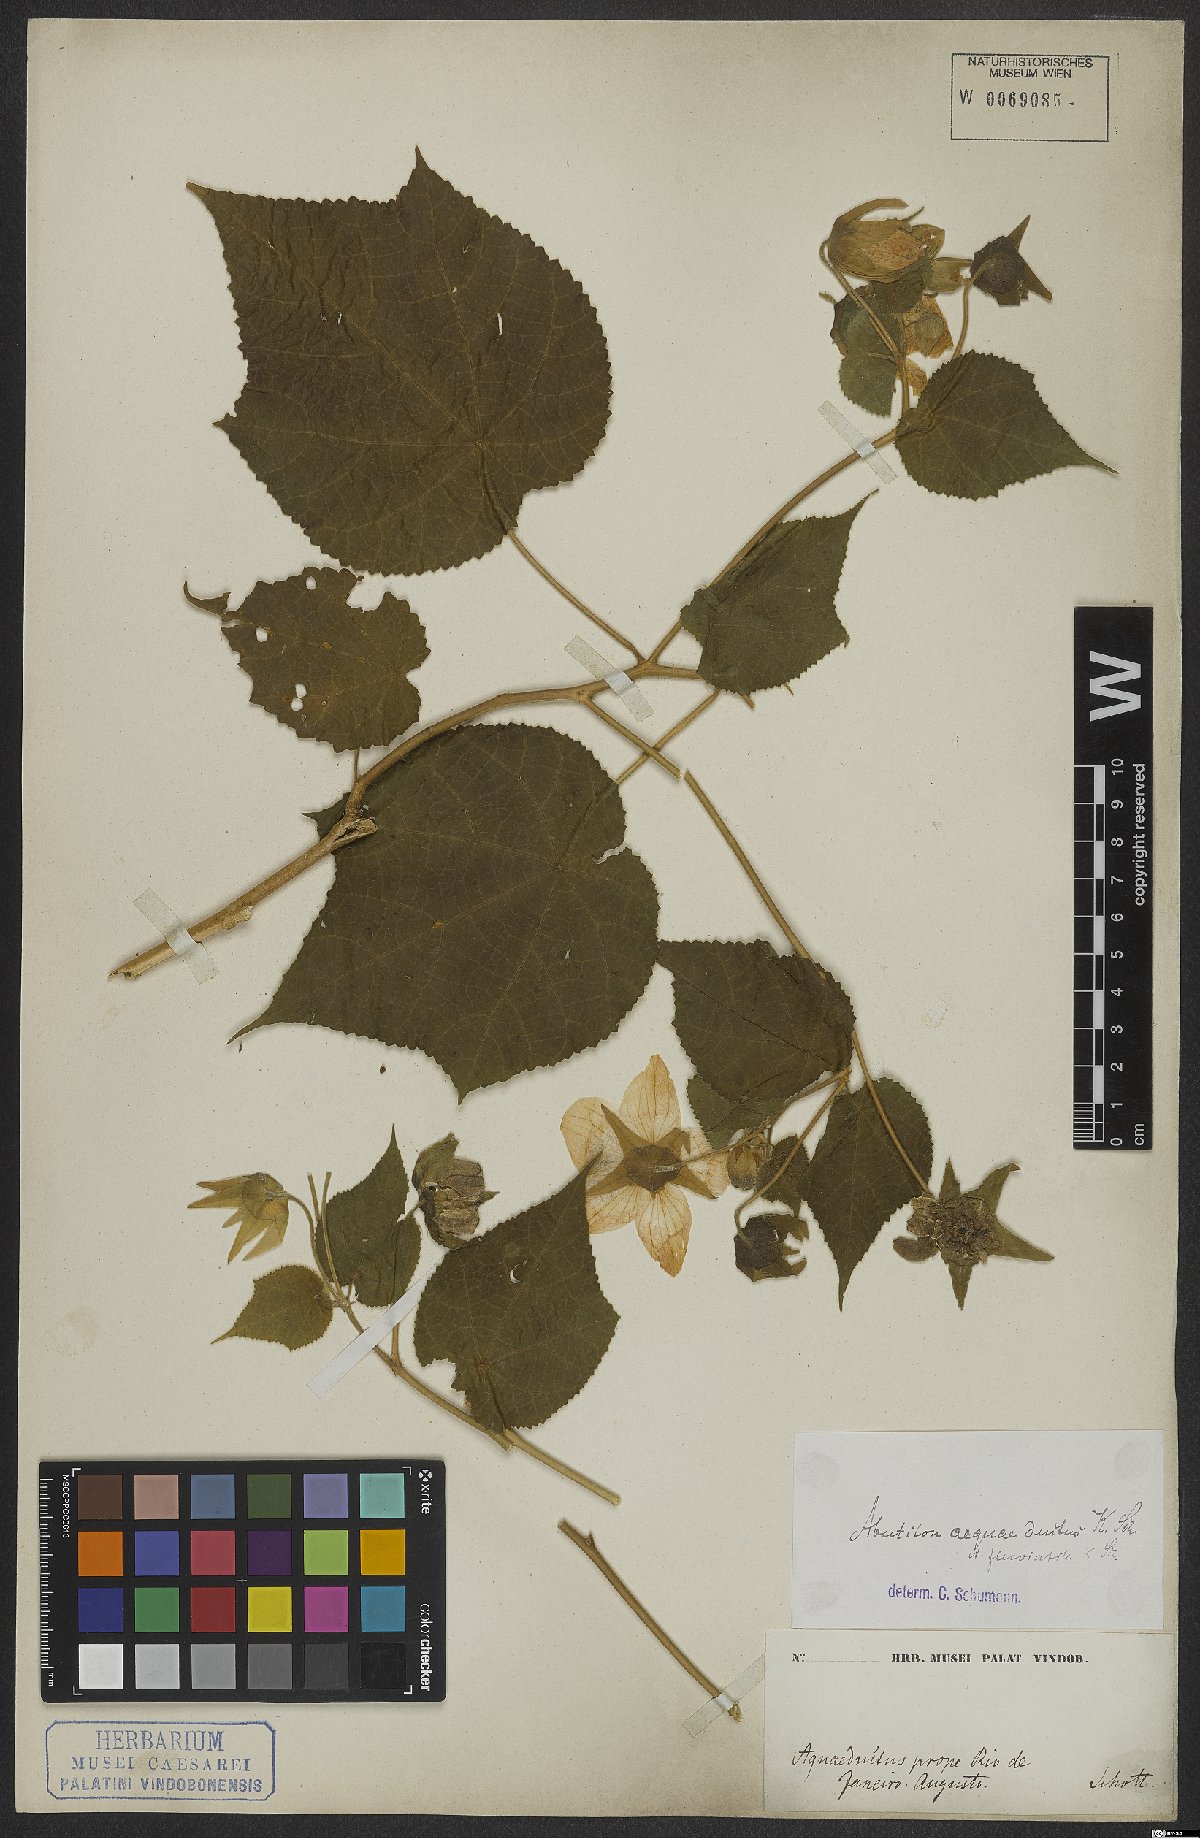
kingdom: Plantae
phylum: Tracheophyta
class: Magnoliopsida
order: Malvales
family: Malvaceae
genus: Abutilon
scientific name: Abutilon
